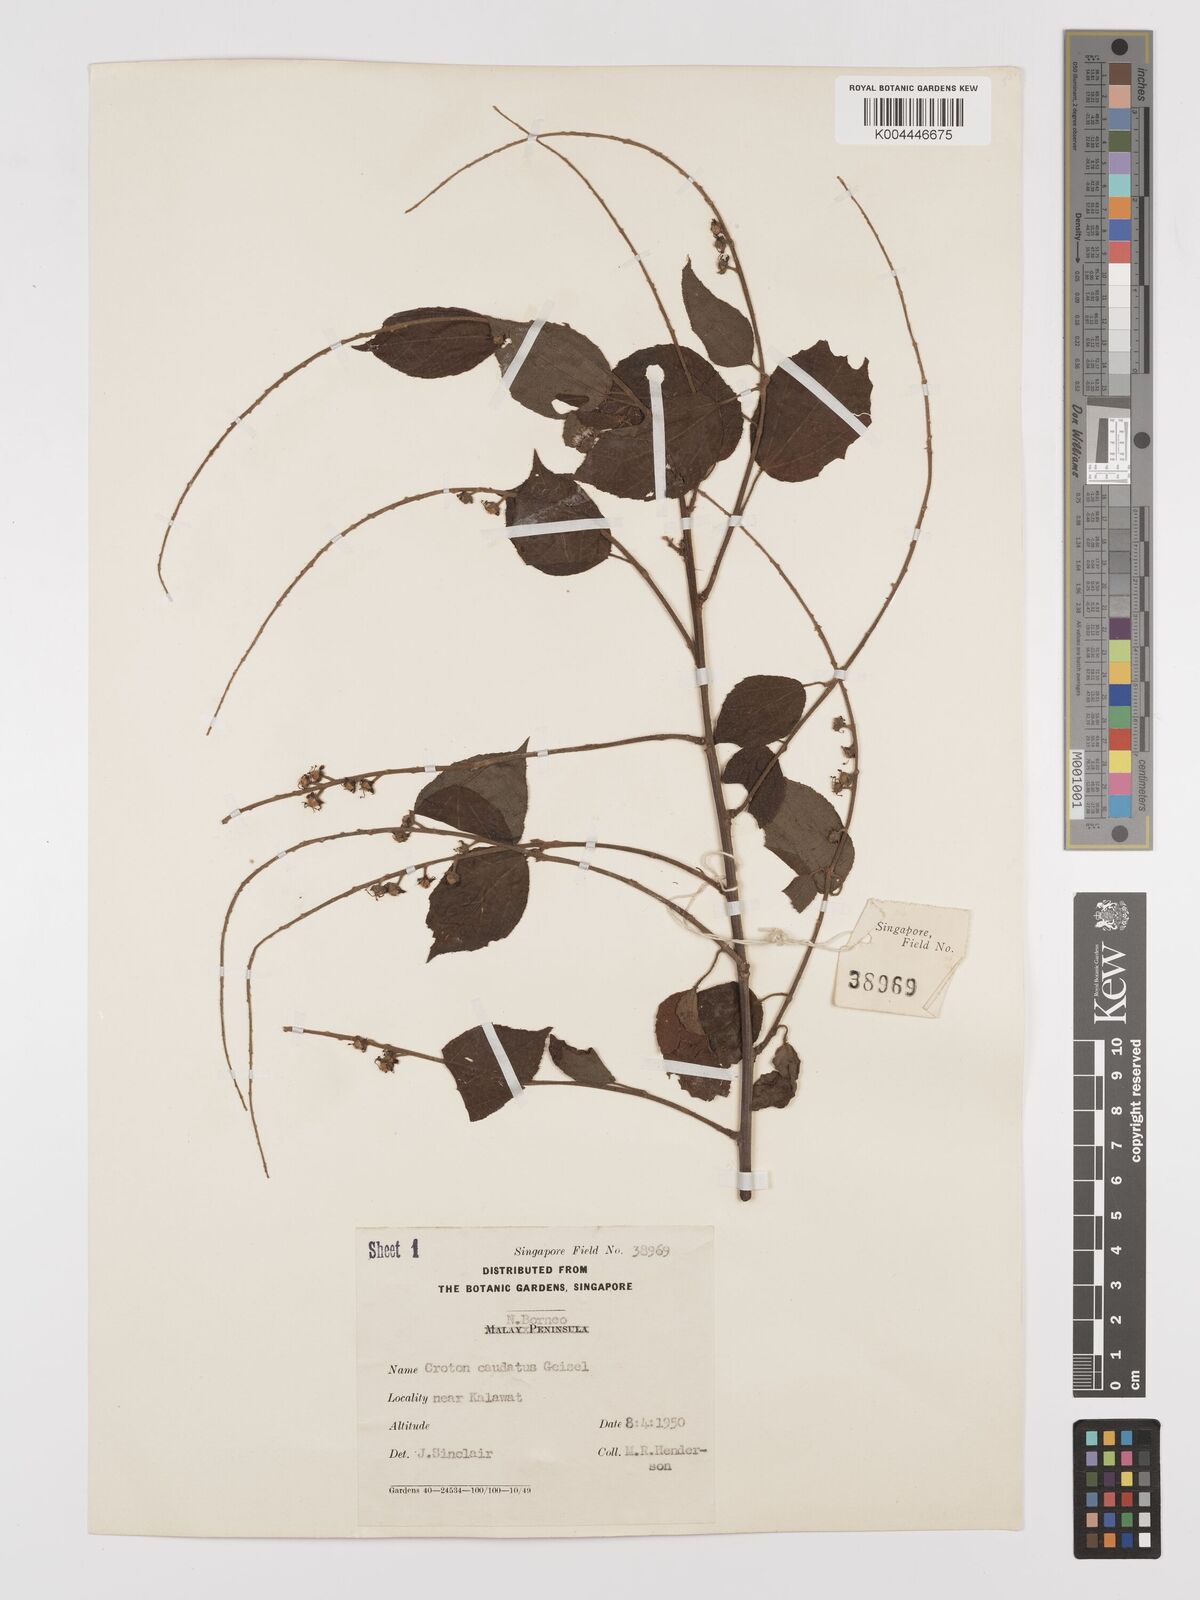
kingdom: Plantae
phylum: Tracheophyta
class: Magnoliopsida
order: Malpighiales
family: Euphorbiaceae
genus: Croton
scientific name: Croton caudatus
